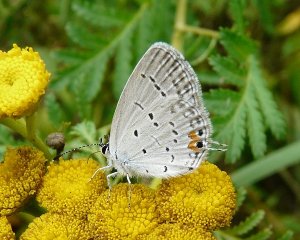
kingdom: Animalia
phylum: Arthropoda
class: Insecta
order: Lepidoptera
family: Lycaenidae
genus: Elkalyce
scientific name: Elkalyce comyntas
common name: Eastern Tailed-Blue
